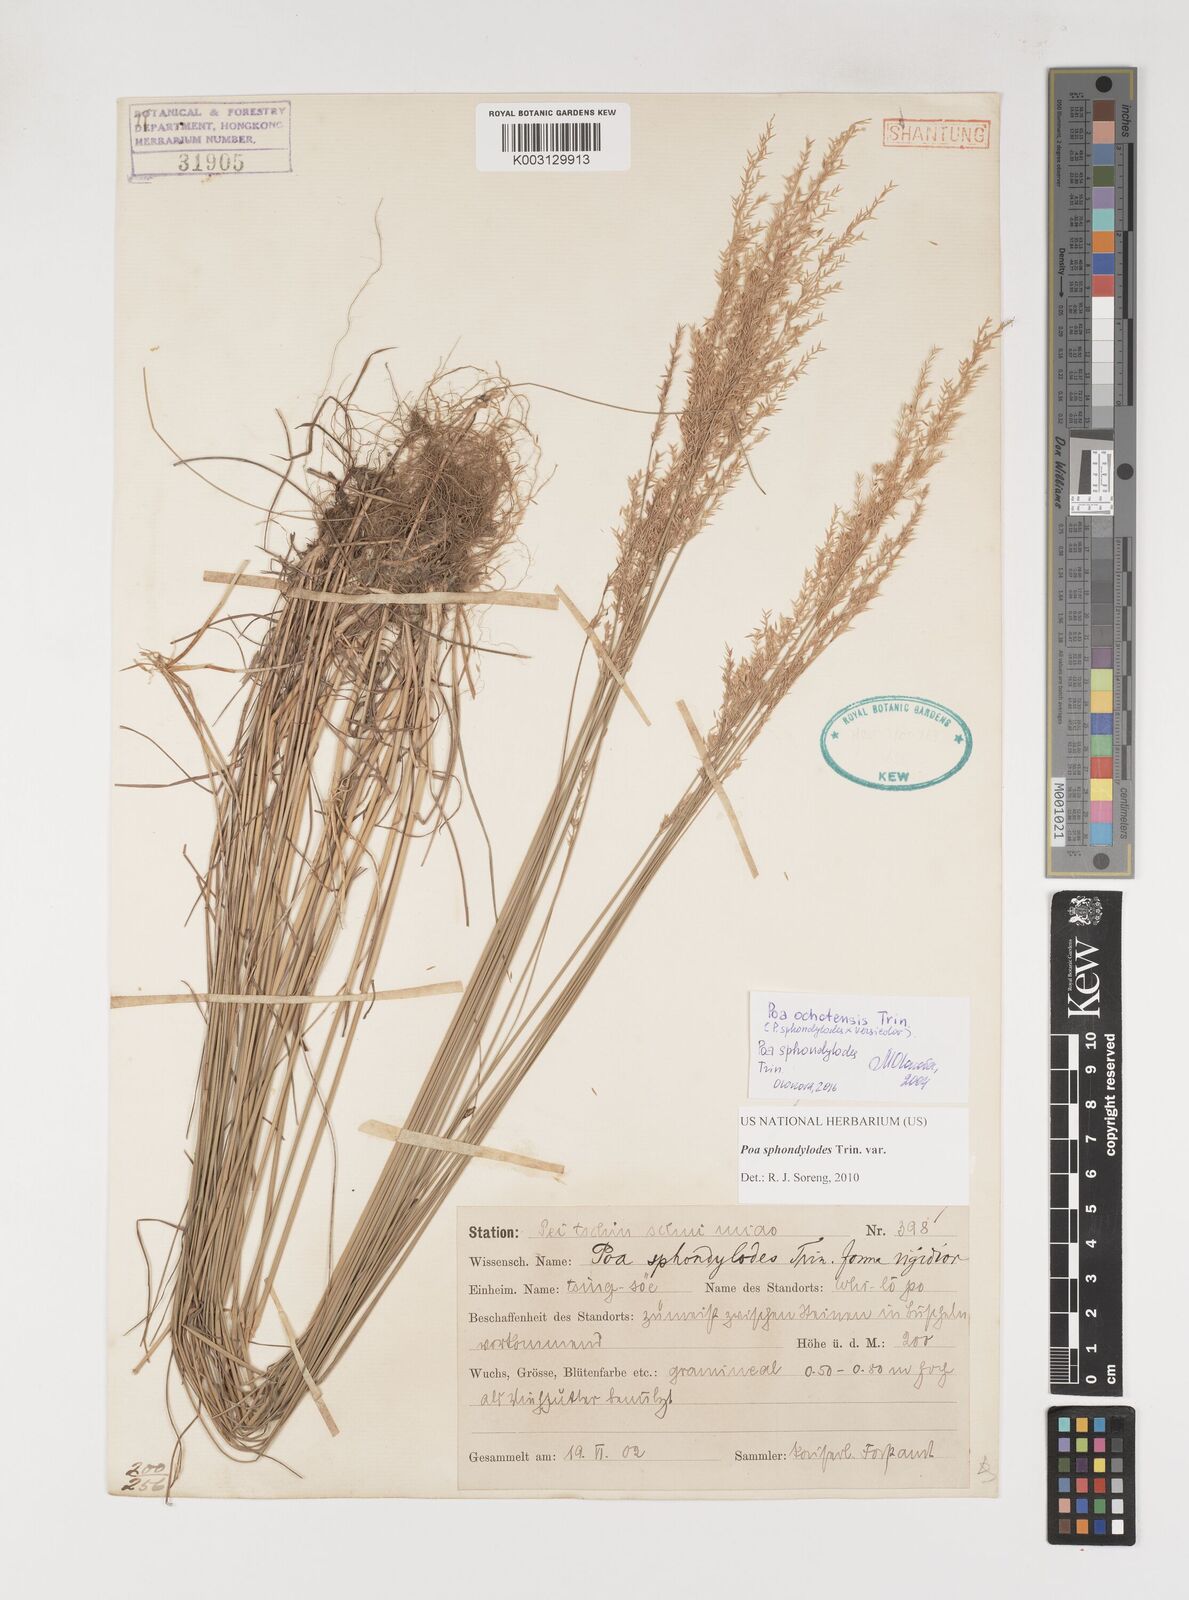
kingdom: Plantae
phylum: Tracheophyta
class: Liliopsida
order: Poales
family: Poaceae
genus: Poa
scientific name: Poa sphondylodes
